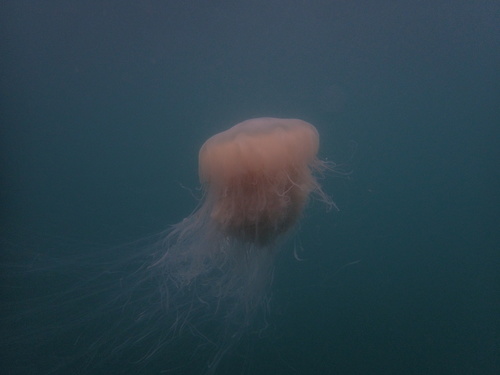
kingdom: Animalia
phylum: Cnidaria
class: Scyphozoa
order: Semaeostomeae
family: Cyaneidae
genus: Cyanea
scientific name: Cyanea nozakii
